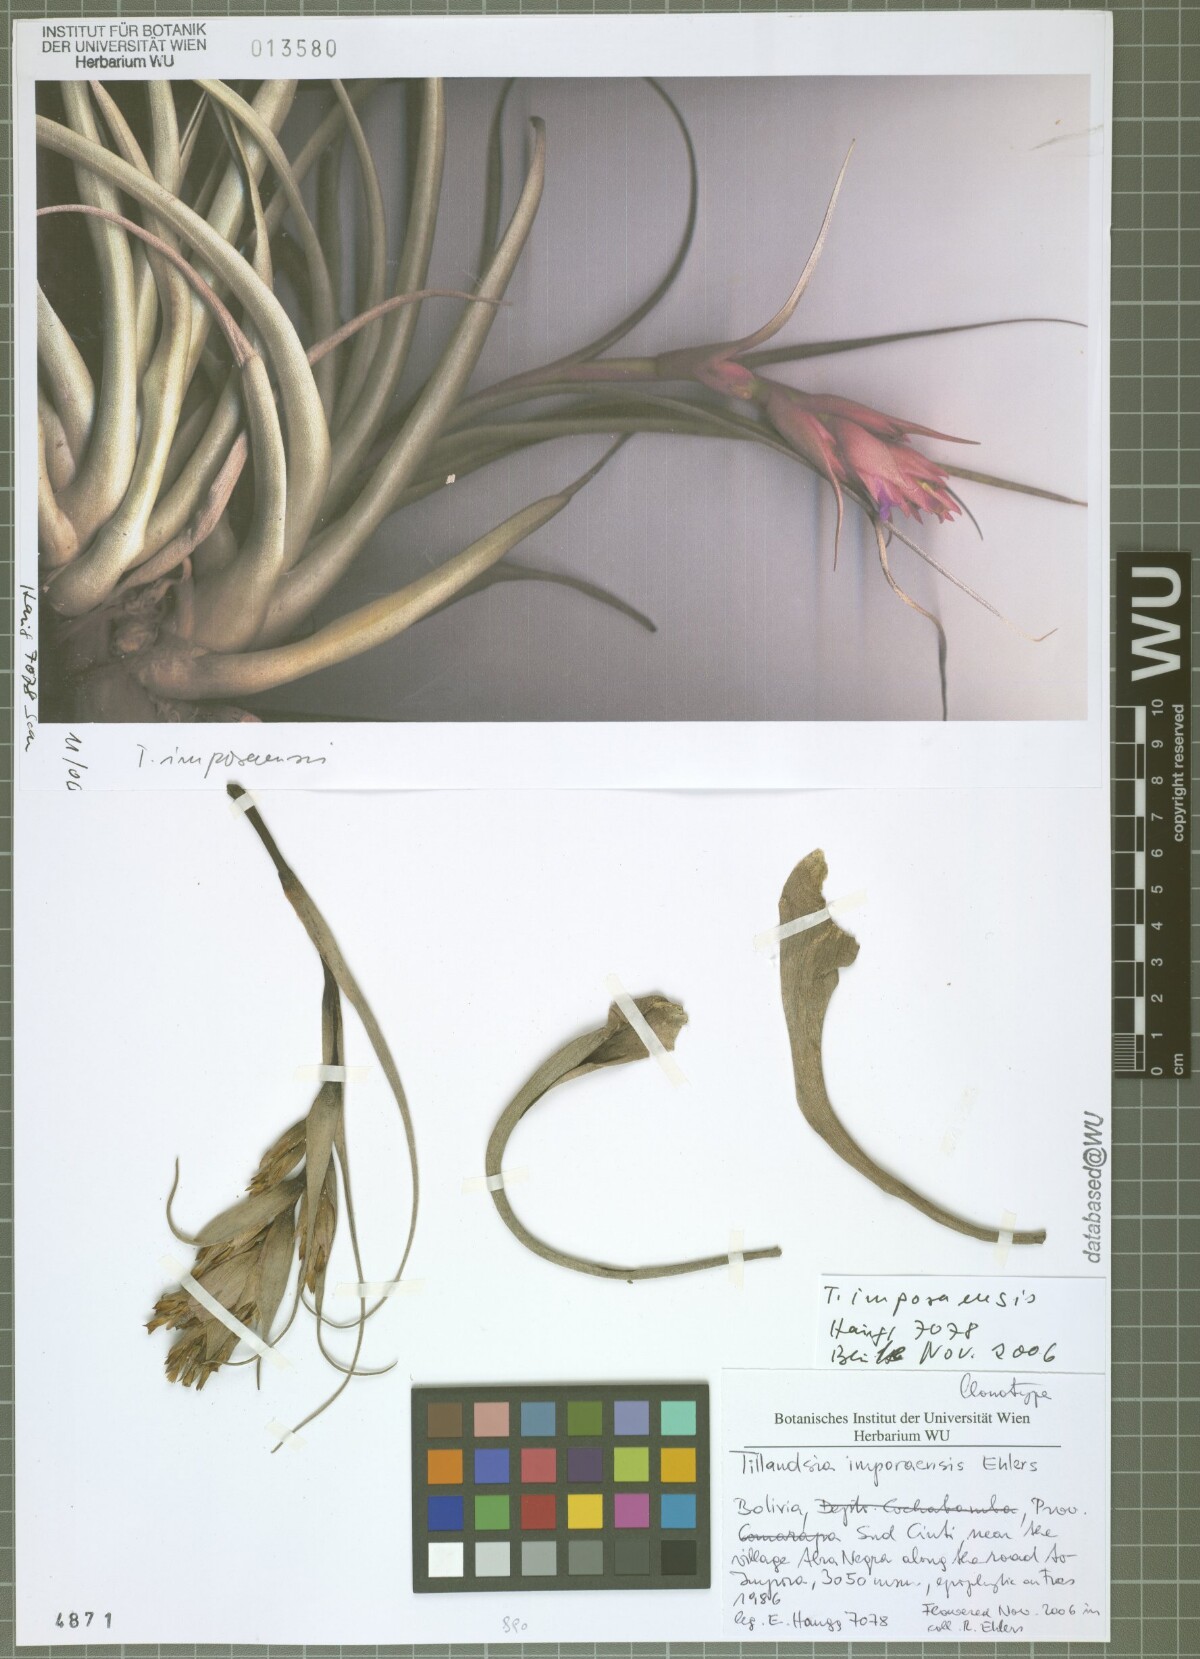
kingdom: Plantae
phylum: Tracheophyta
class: Liliopsida
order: Poales
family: Bromeliaceae
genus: Tillandsia
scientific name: Tillandsia imporaensis
